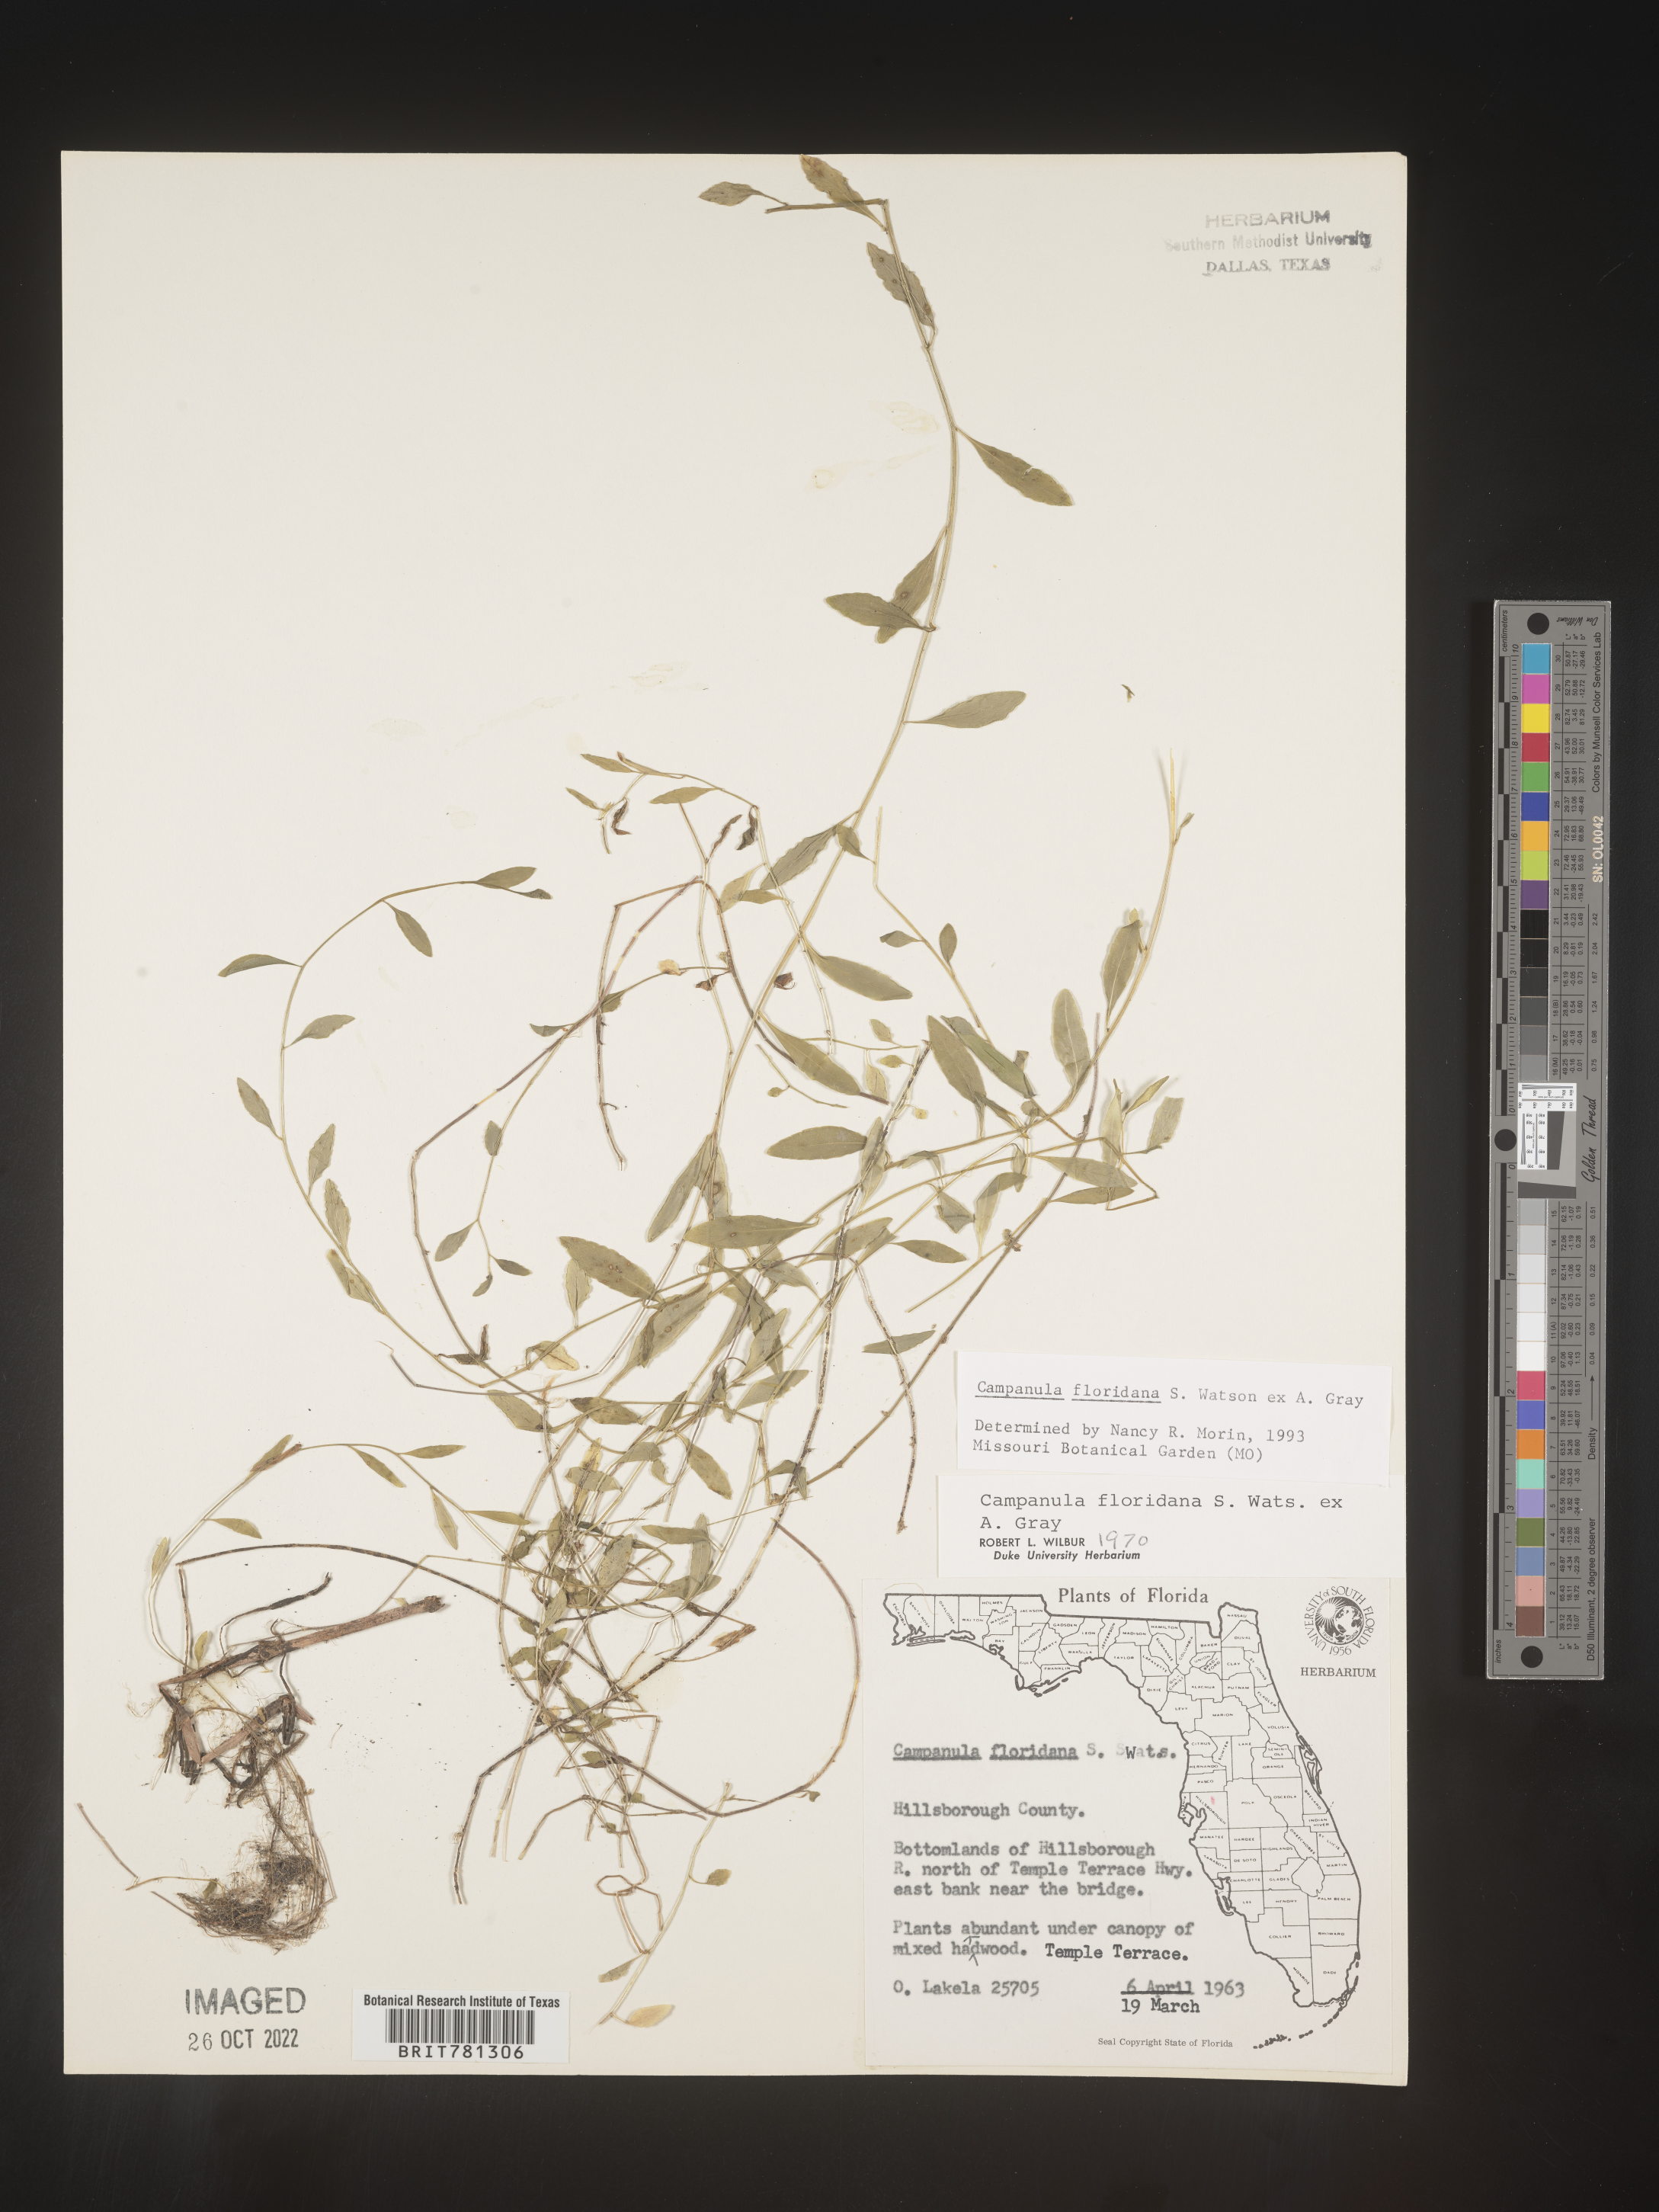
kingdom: Plantae
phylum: Tracheophyta
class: Magnoliopsida
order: Asterales
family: Campanulaceae
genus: Campanula
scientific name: Campanula
